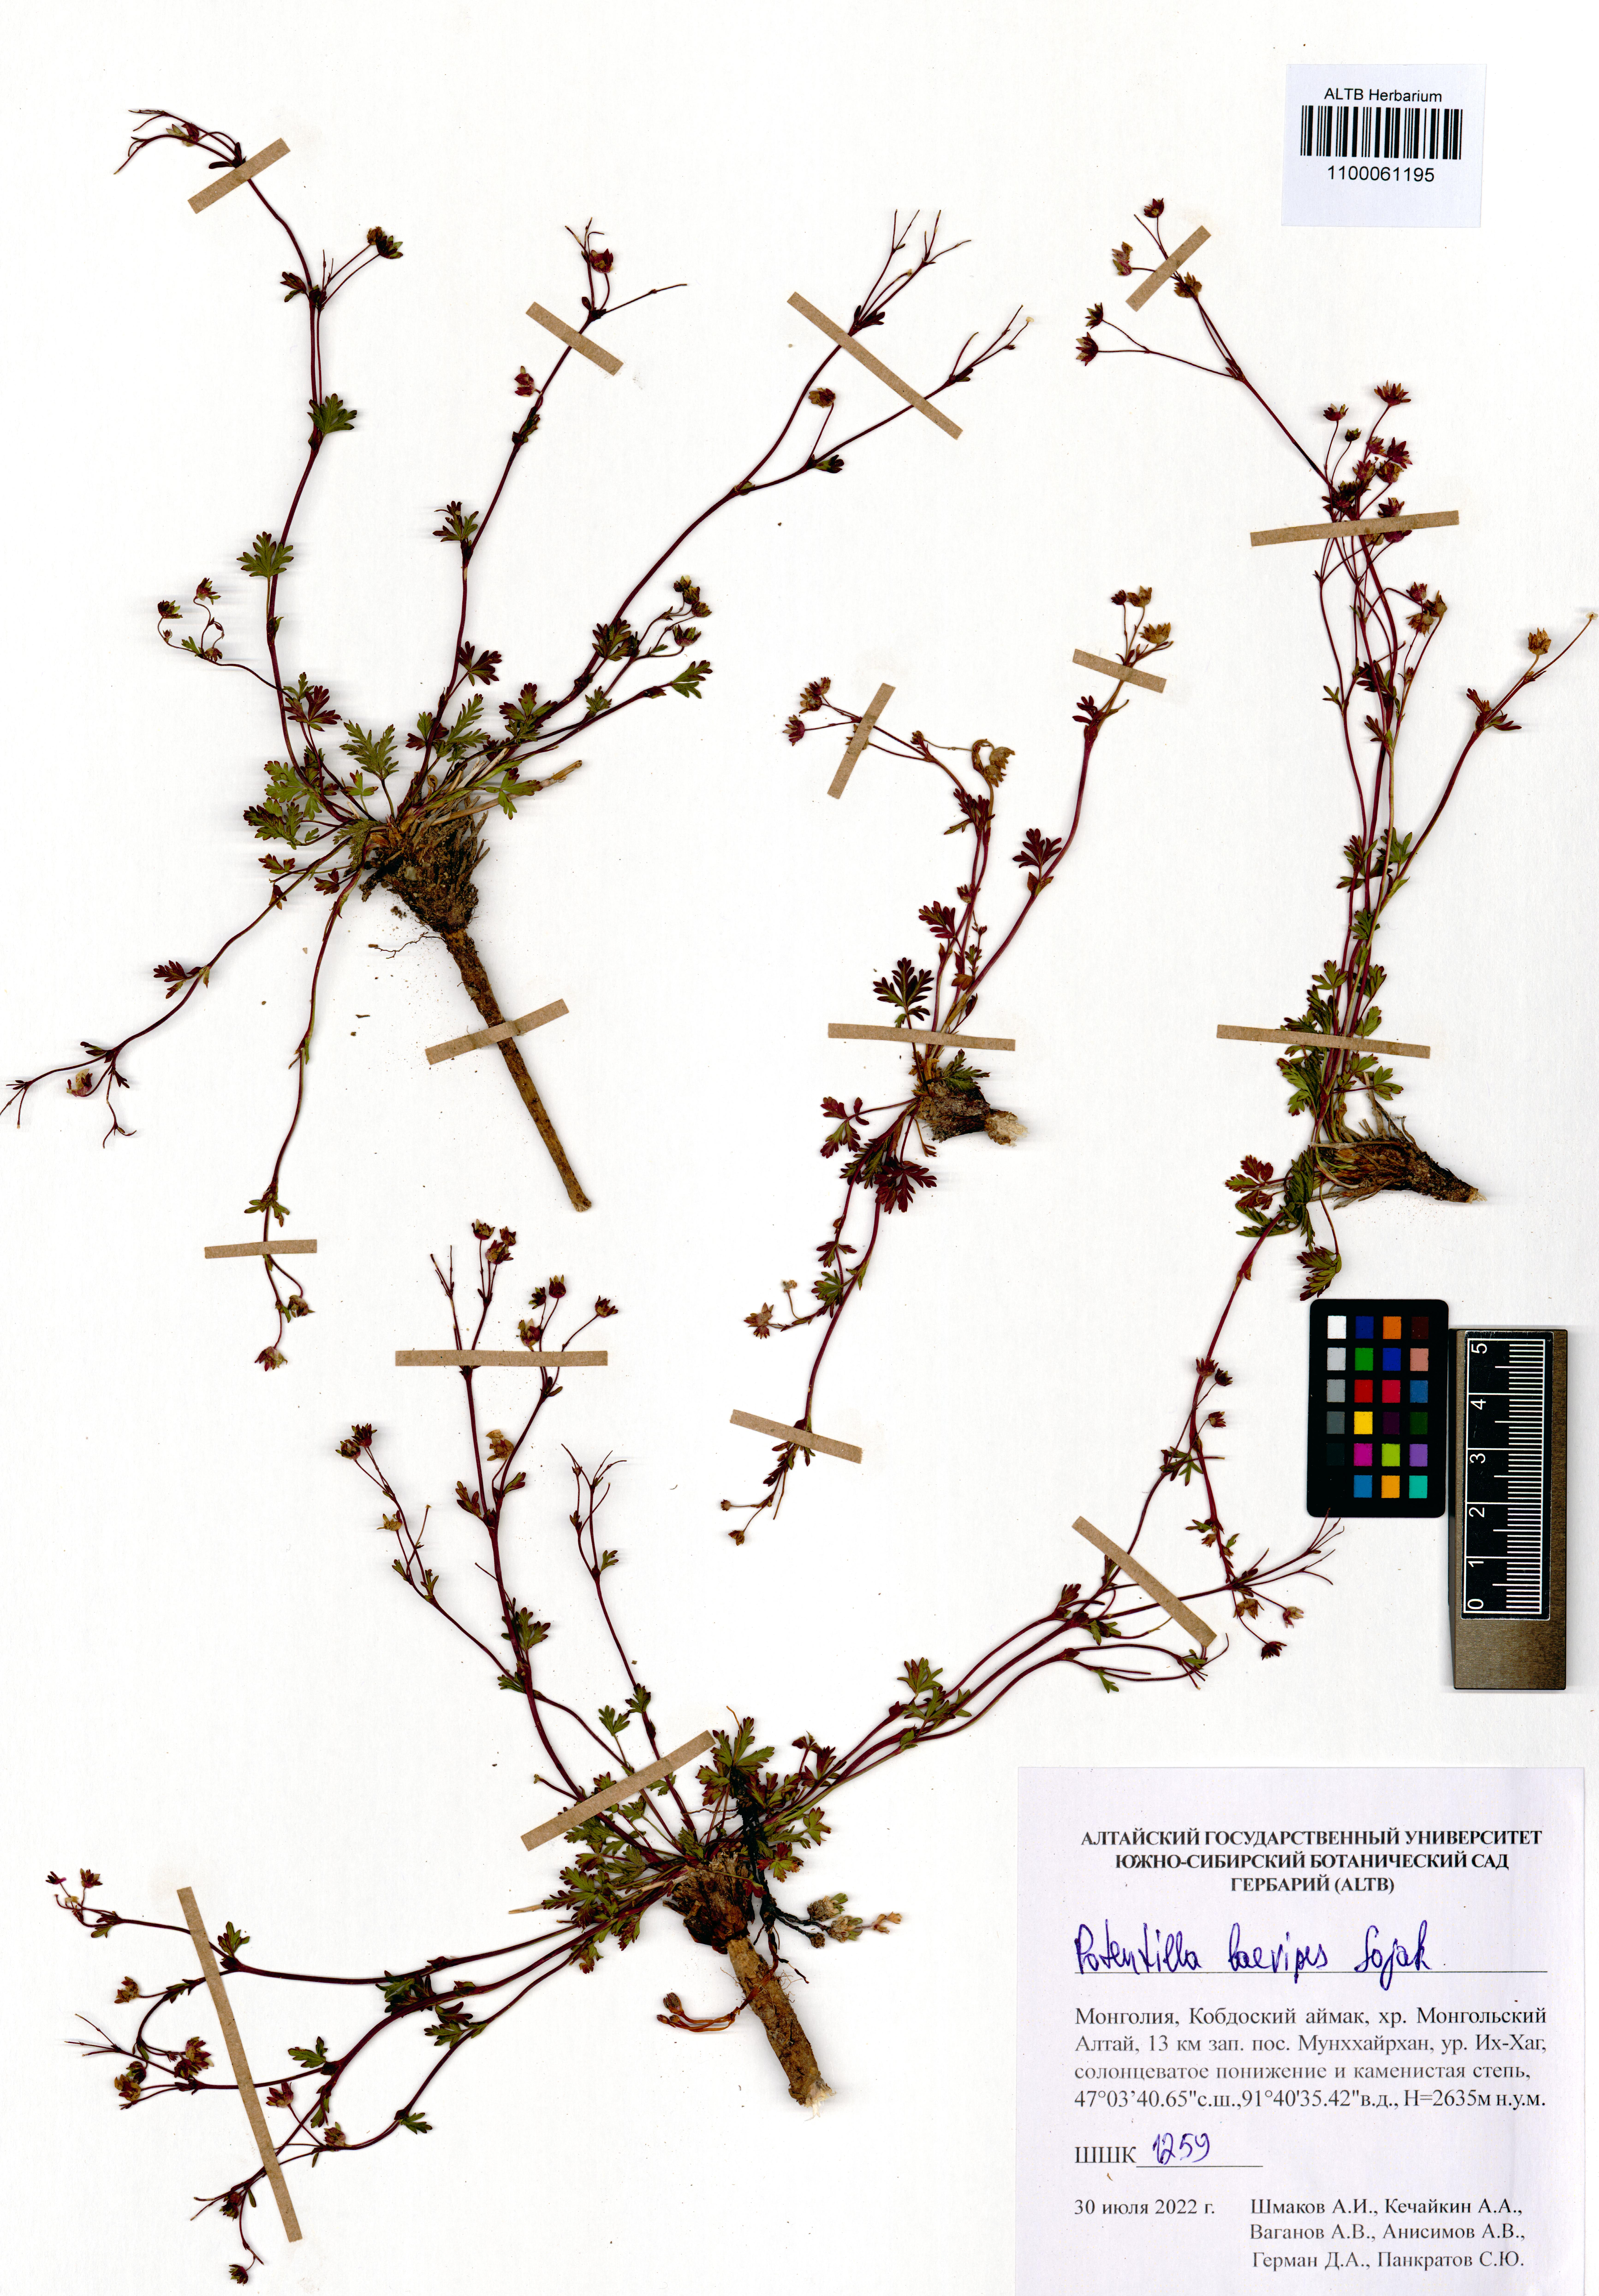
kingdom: Plantae
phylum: Tracheophyta
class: Magnoliopsida
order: Rosales
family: Rosaceae
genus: Potentilla
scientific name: Potentilla laevipes
